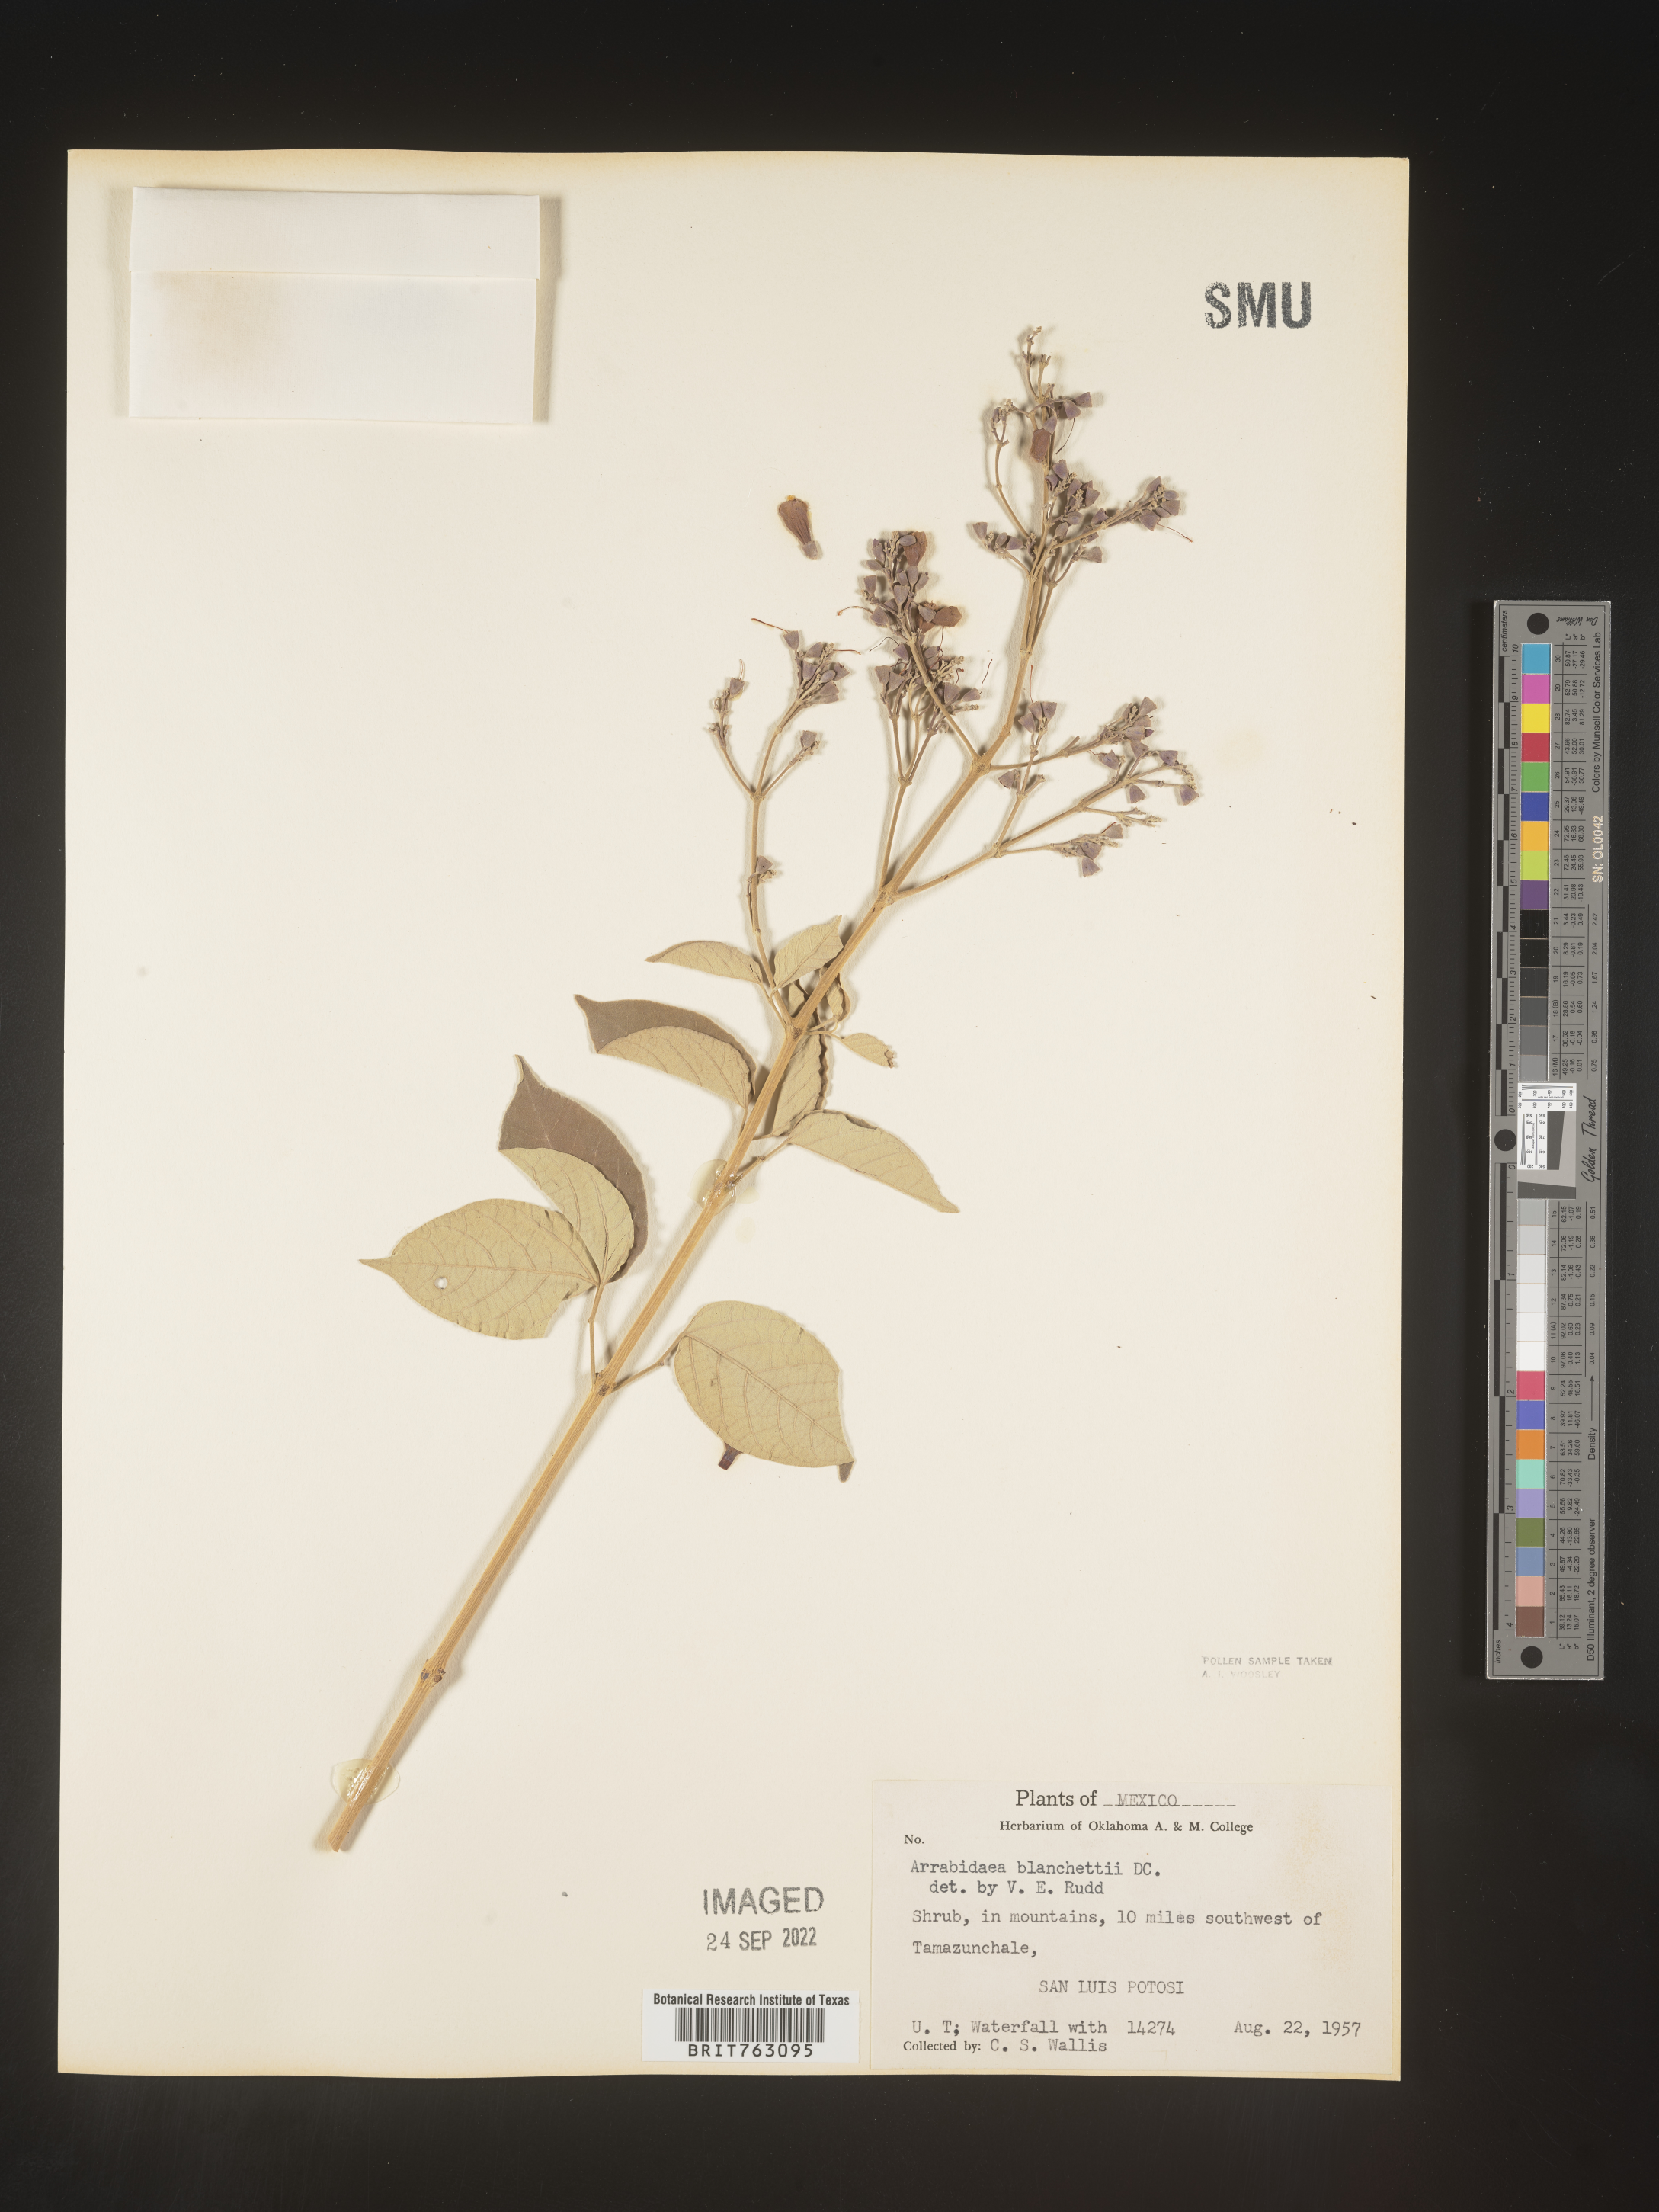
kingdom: Plantae
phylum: Tracheophyta
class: Magnoliopsida
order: Rosales
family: Rhamnaceae
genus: Arrabidaea
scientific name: Arrabidaea
